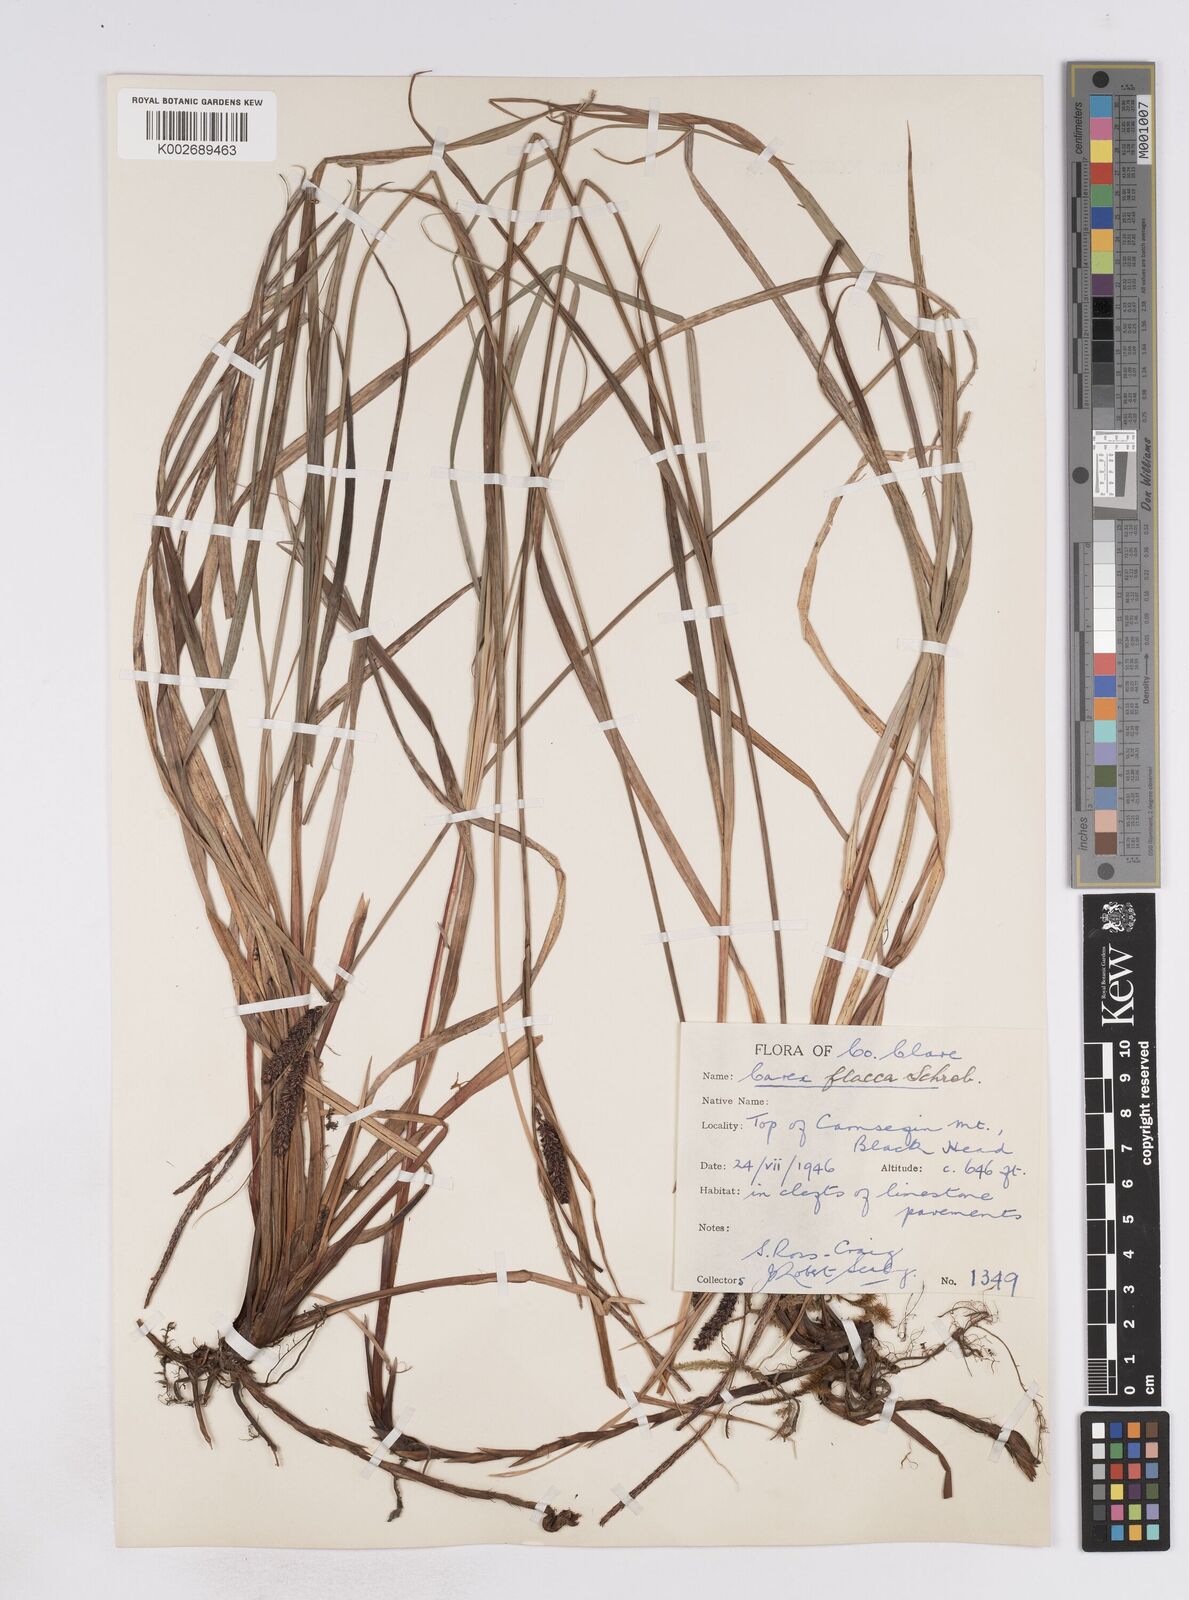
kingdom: Plantae
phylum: Tracheophyta
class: Liliopsida
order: Poales
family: Cyperaceae
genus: Carex
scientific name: Carex flacca
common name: Glaucous sedge
